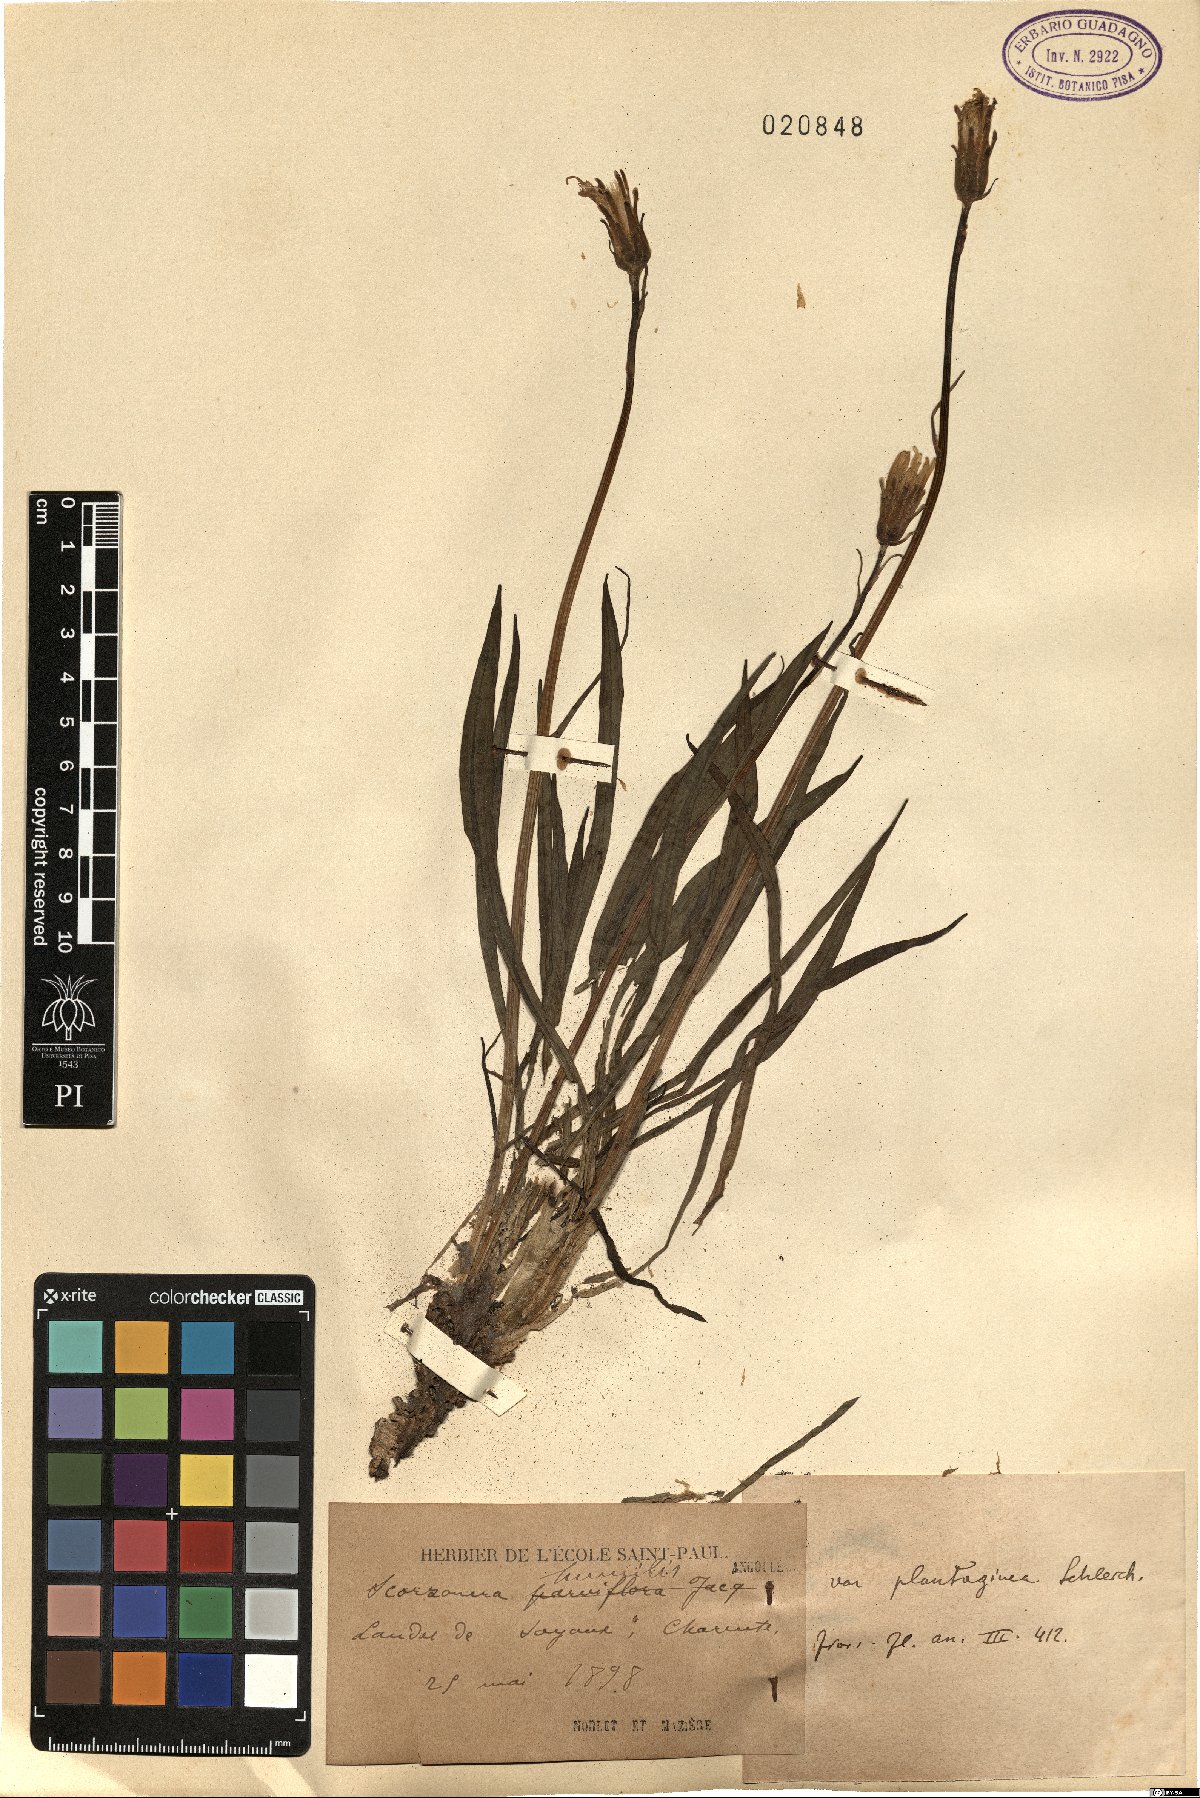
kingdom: Plantae
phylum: Tracheophyta
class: Magnoliopsida
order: Asterales
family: Asteraceae
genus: Scorzonera
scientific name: Scorzonera humilis
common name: Viper's-grass
